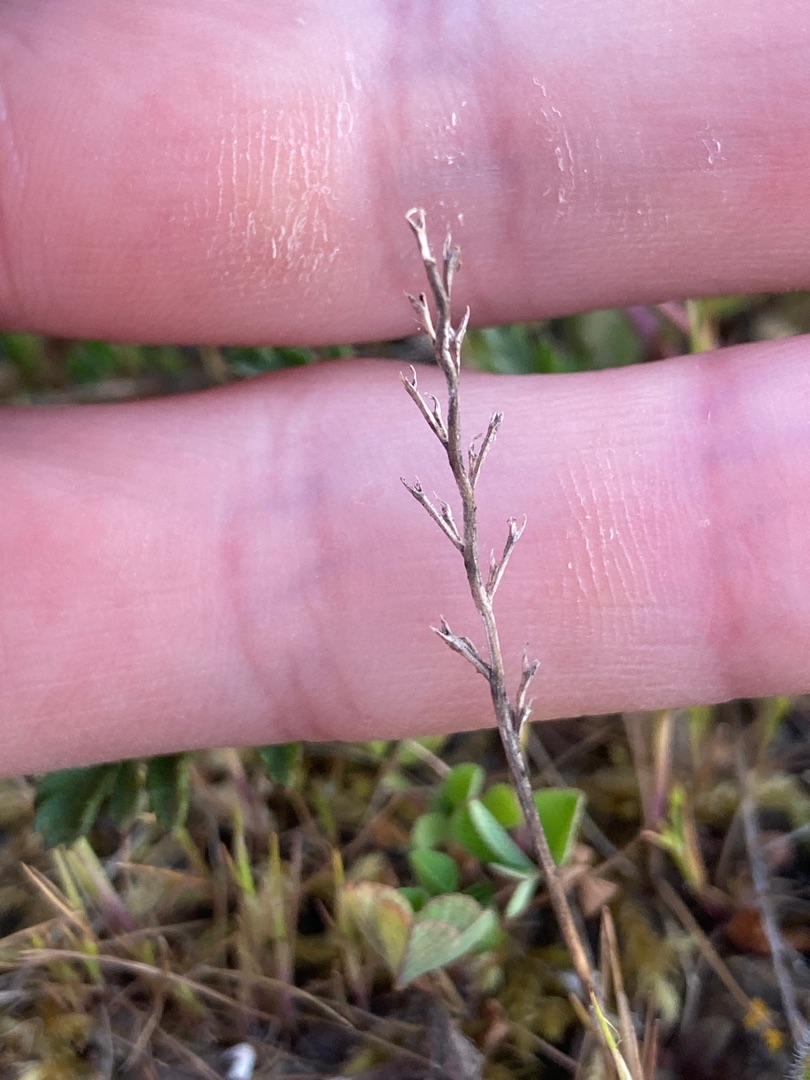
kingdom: Plantae
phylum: Tracheophyta
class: Liliopsida
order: Poales
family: Poaceae
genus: Catapodium
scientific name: Catapodium rigidum
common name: Bregnegræs
